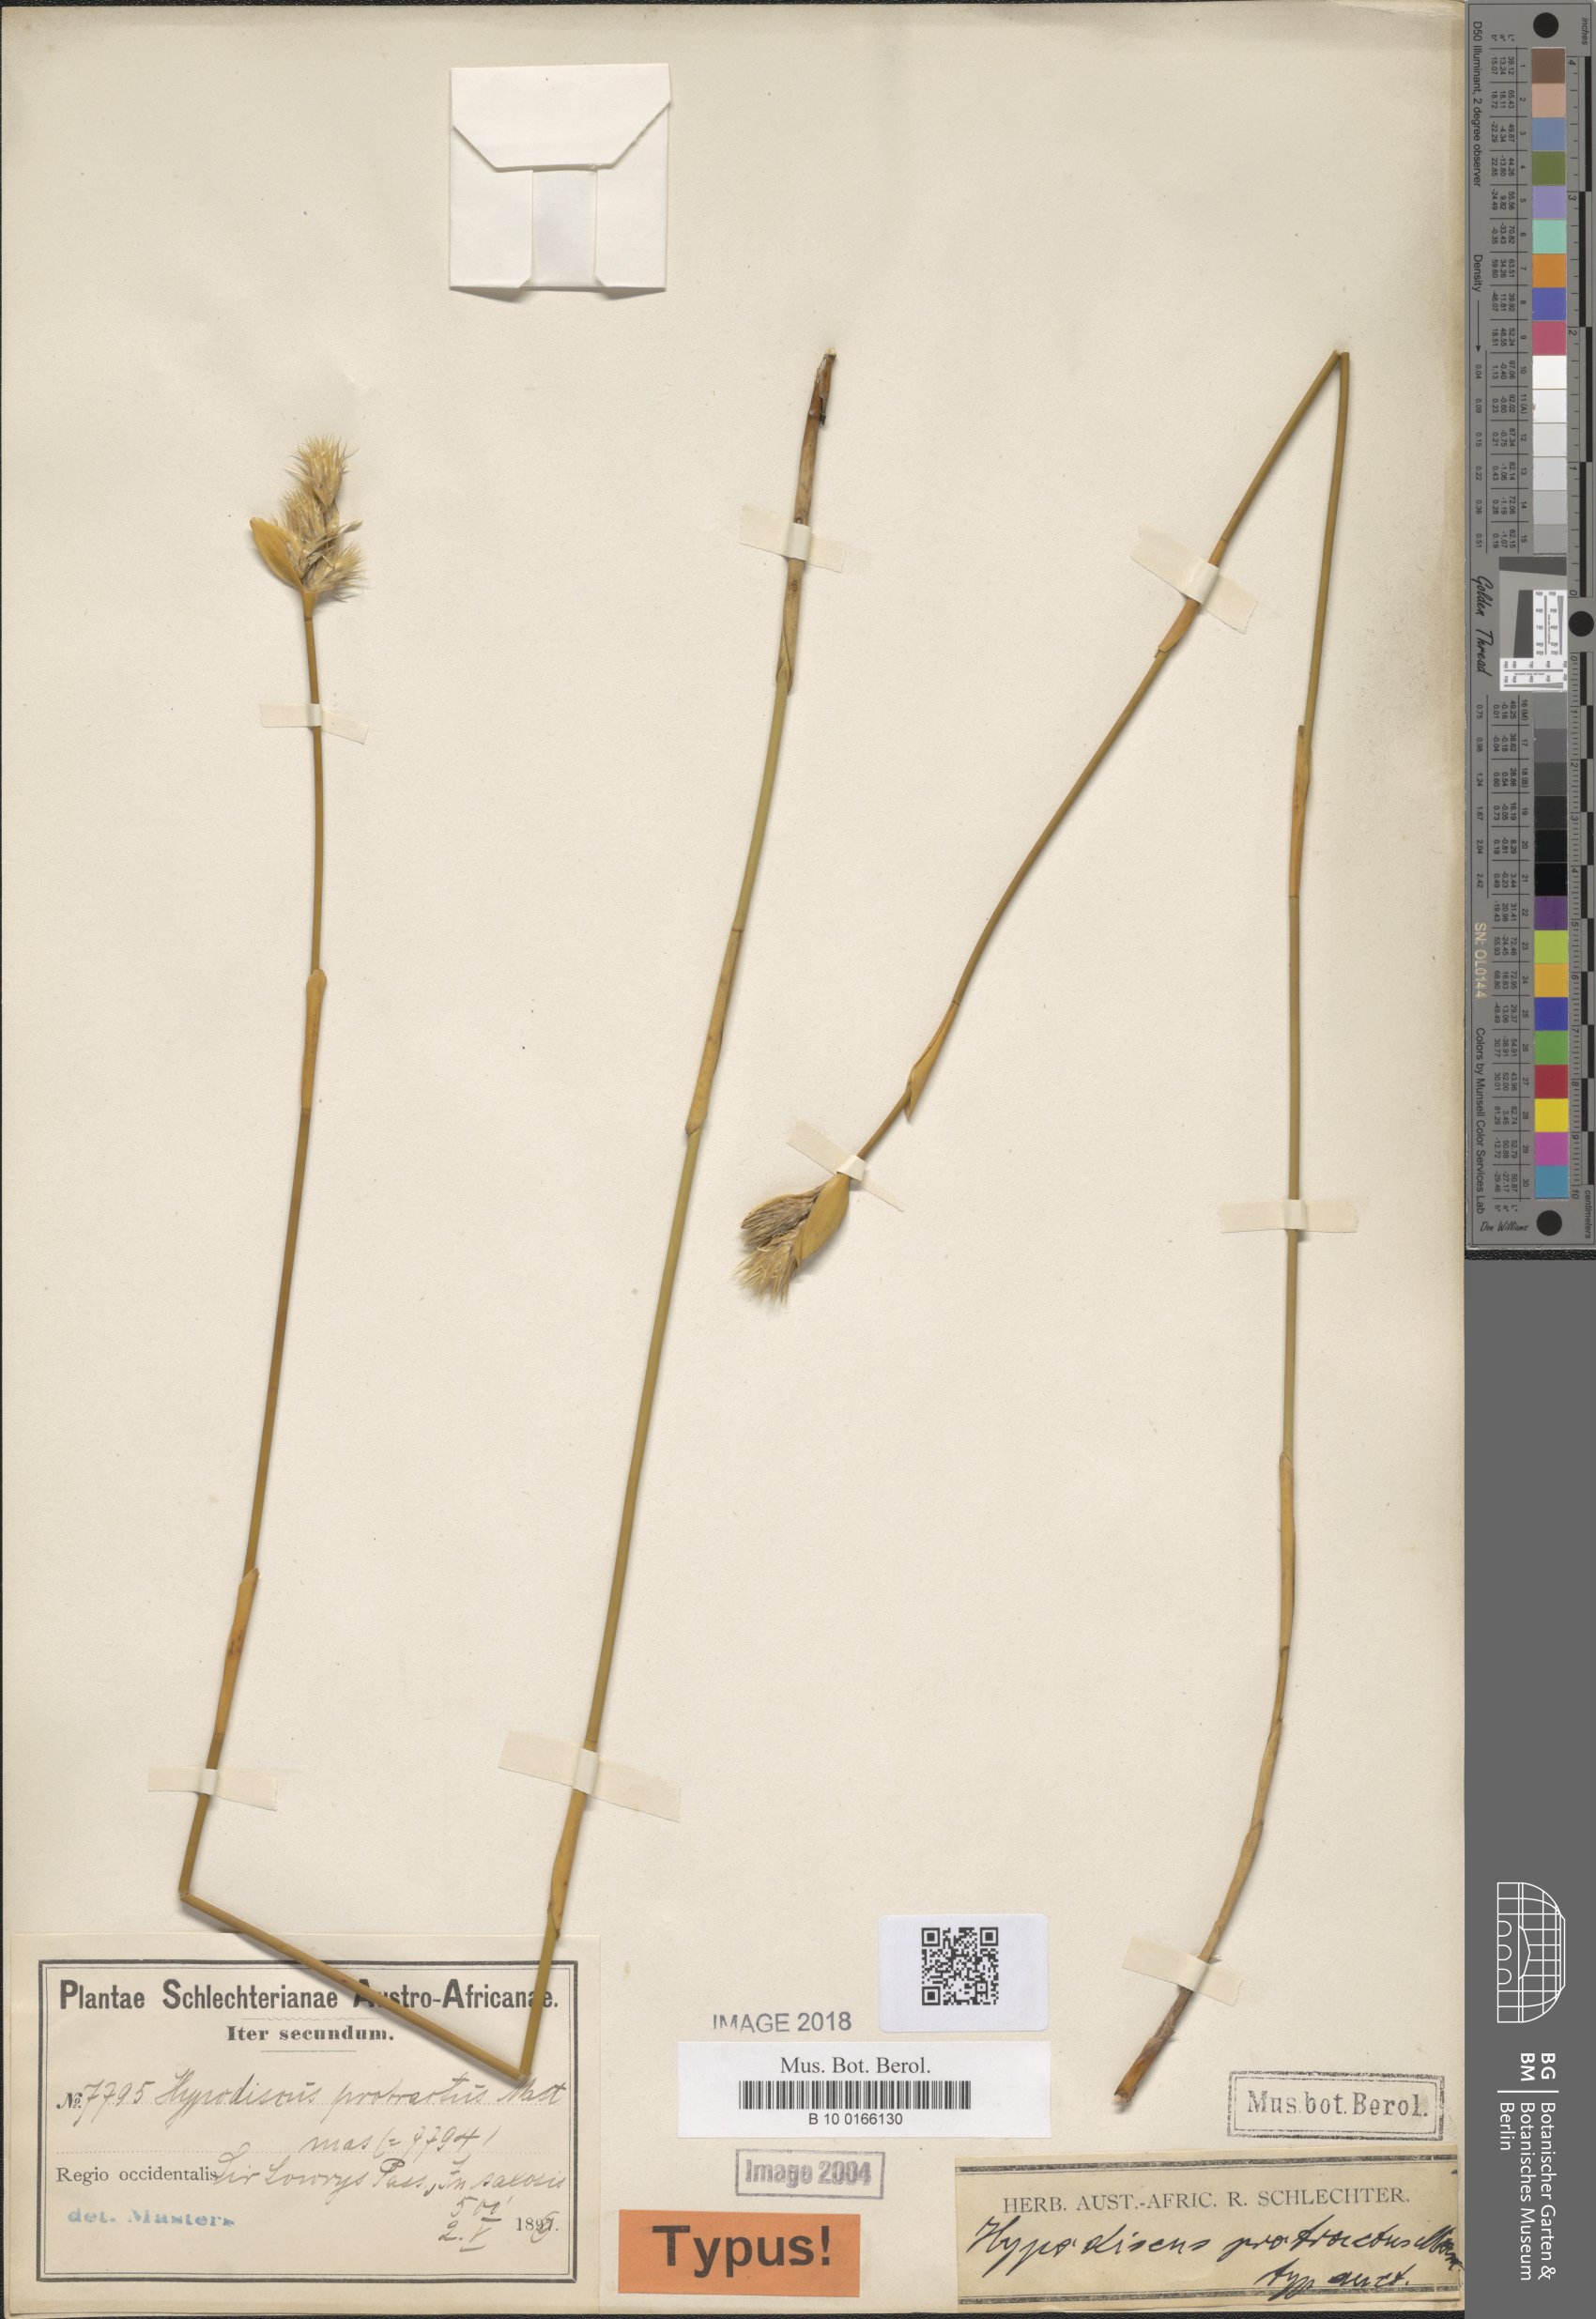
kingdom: Plantae
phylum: Tracheophyta
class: Liliopsida
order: Poales
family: Restionaceae
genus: Hypodiscus
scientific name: Hypodiscus aristatus
